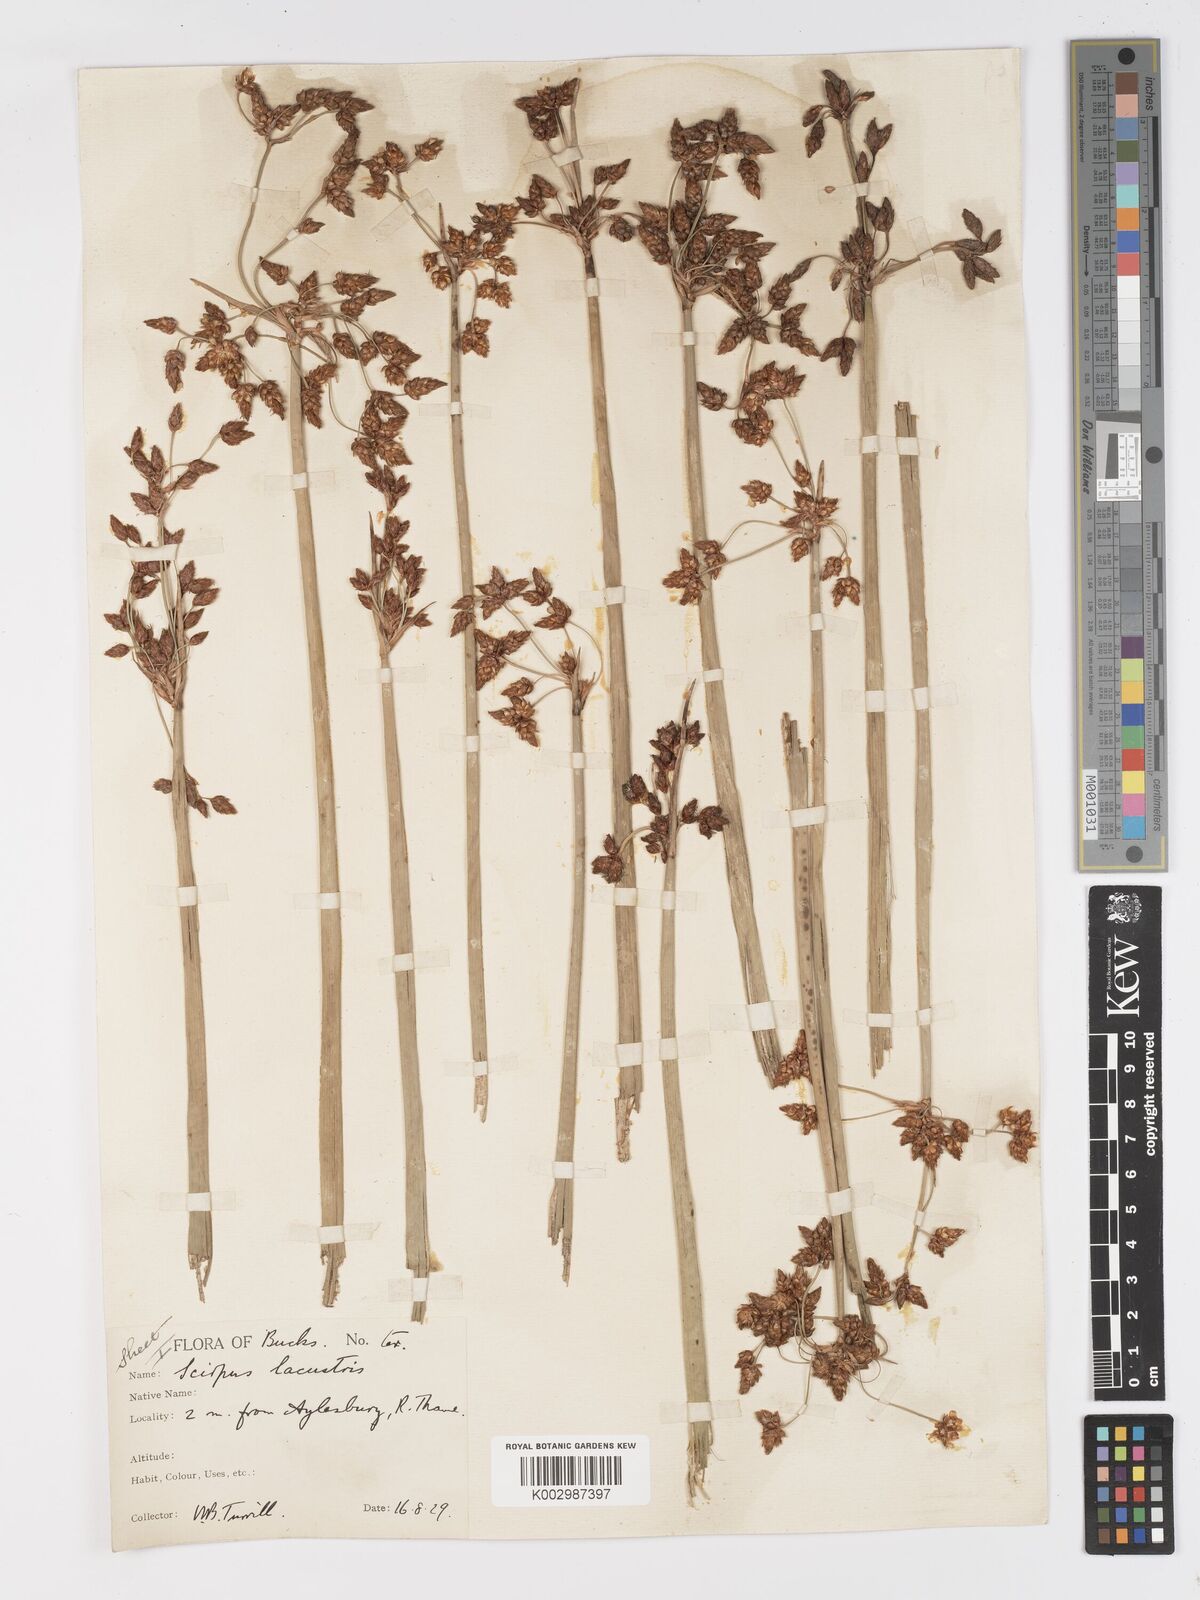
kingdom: Plantae
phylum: Tracheophyta
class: Liliopsida
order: Poales
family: Cyperaceae
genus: Schoenoplectus
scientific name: Schoenoplectus lacustris
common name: Common club-rush
